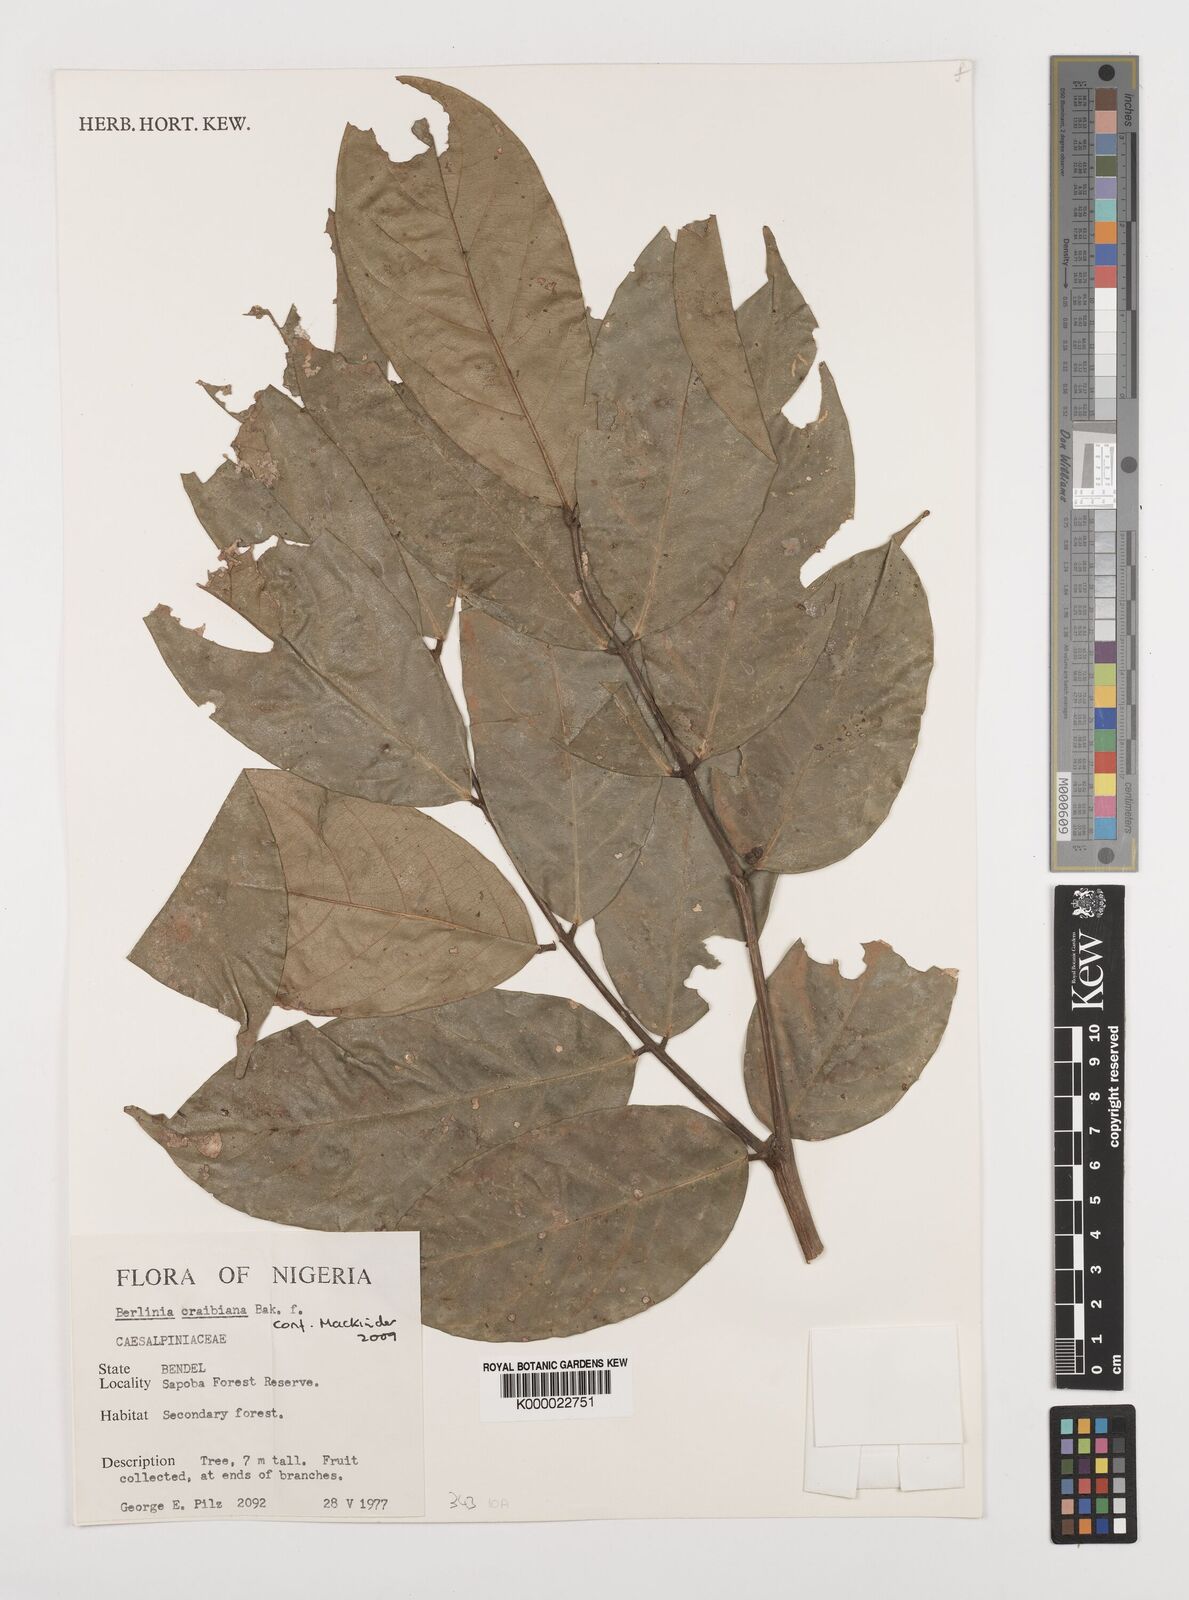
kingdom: Plantae
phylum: Tracheophyta
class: Magnoliopsida
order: Fabales
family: Fabaceae
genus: Berlinia
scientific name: Berlinia craibiana
